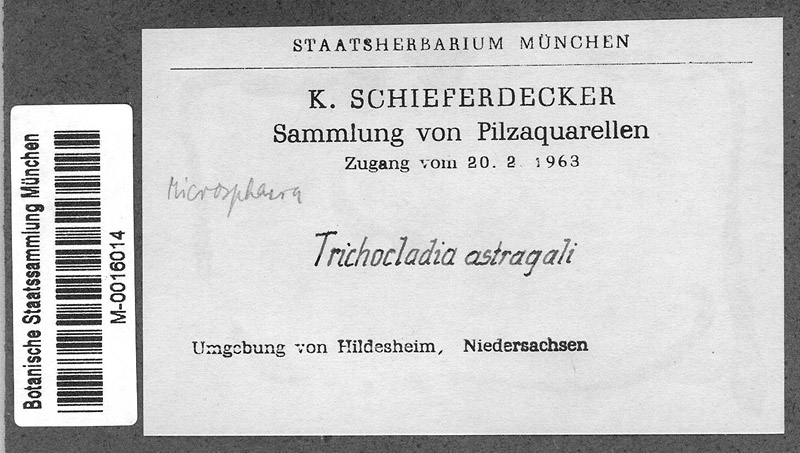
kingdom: Fungi
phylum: Ascomycota
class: Leotiomycetes
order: Helotiales
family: Erysiphaceae
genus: Erysiphe
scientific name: Erysiphe astragali
